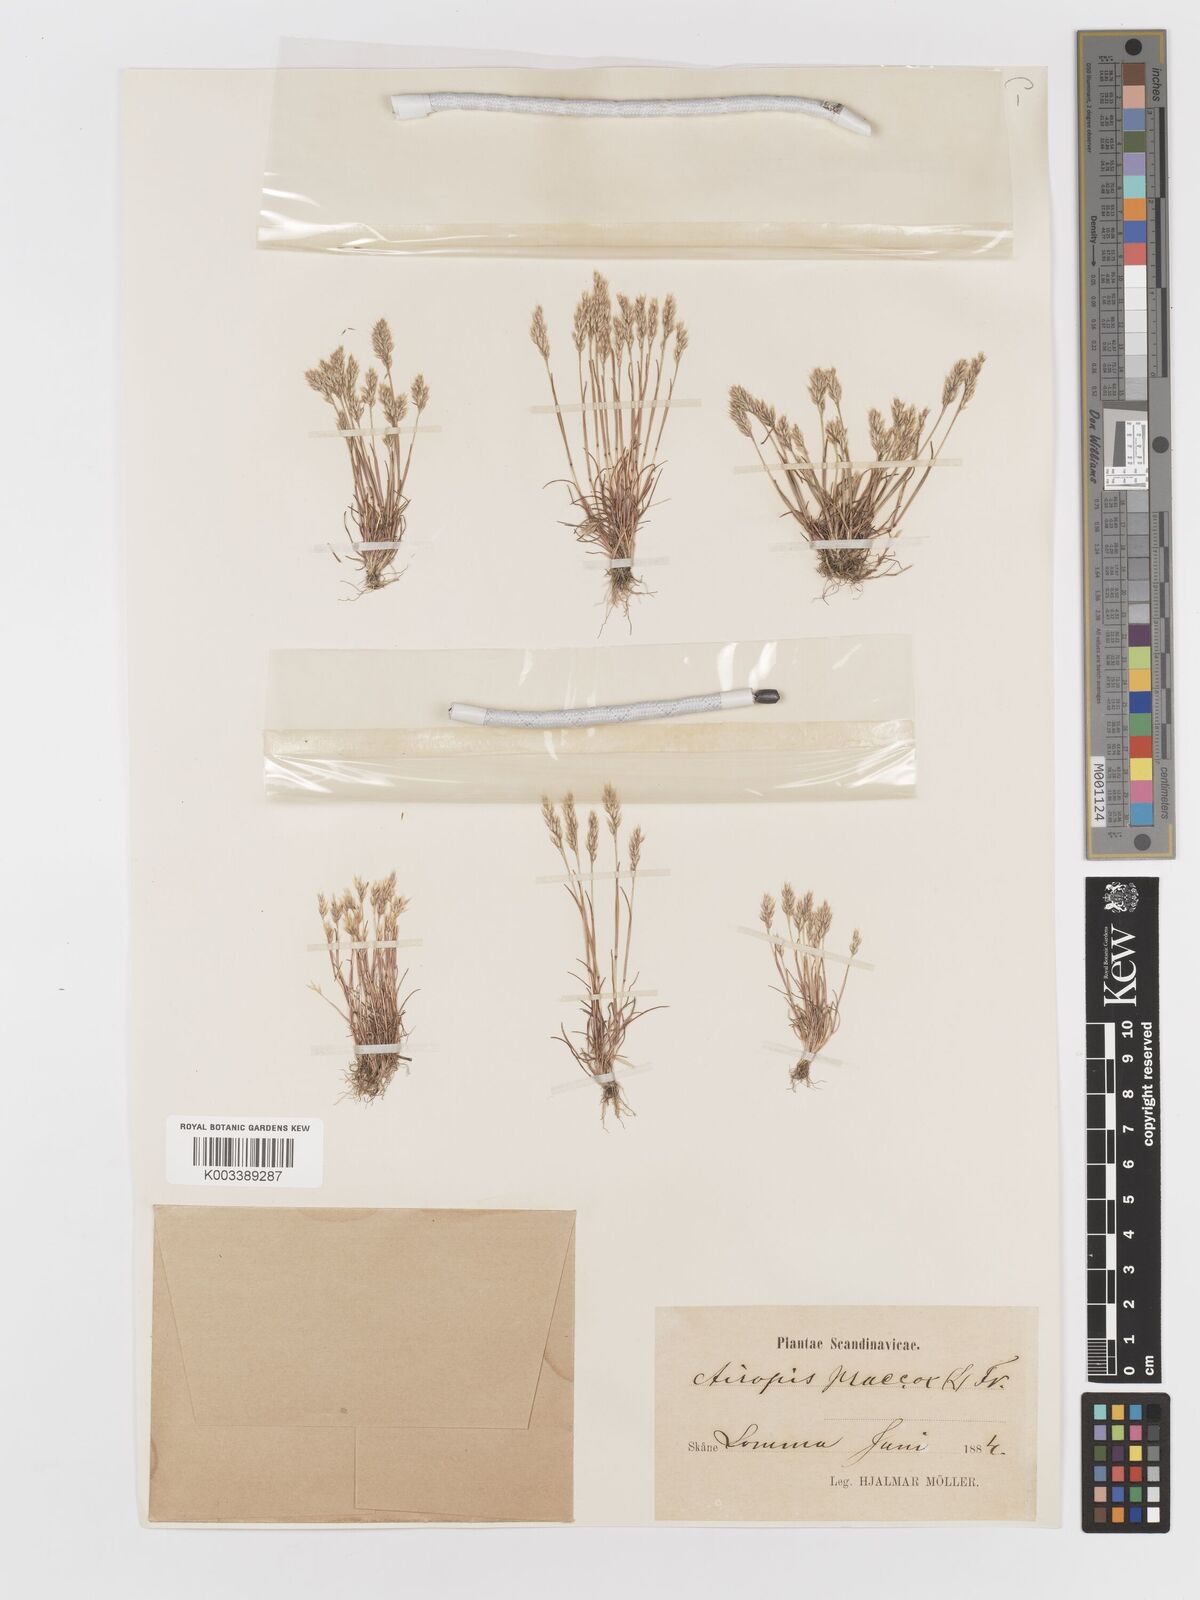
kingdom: Plantae
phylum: Tracheophyta
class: Liliopsida
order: Poales
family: Poaceae
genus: Aira
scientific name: Aira praecox
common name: Early hair-grass
